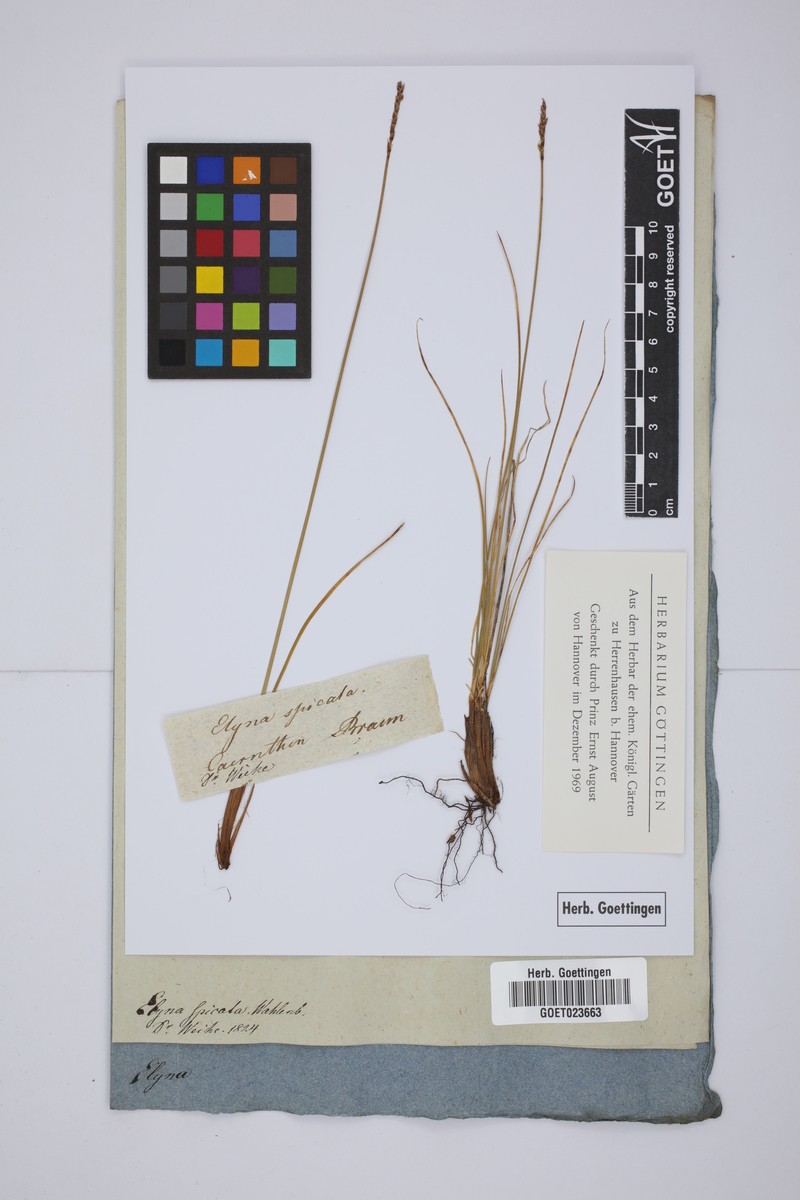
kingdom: Plantae
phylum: Tracheophyta
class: Liliopsida
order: Poales
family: Cyperaceae
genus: Carex
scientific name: Carex myosuroides
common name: Bellard's bog sedge
